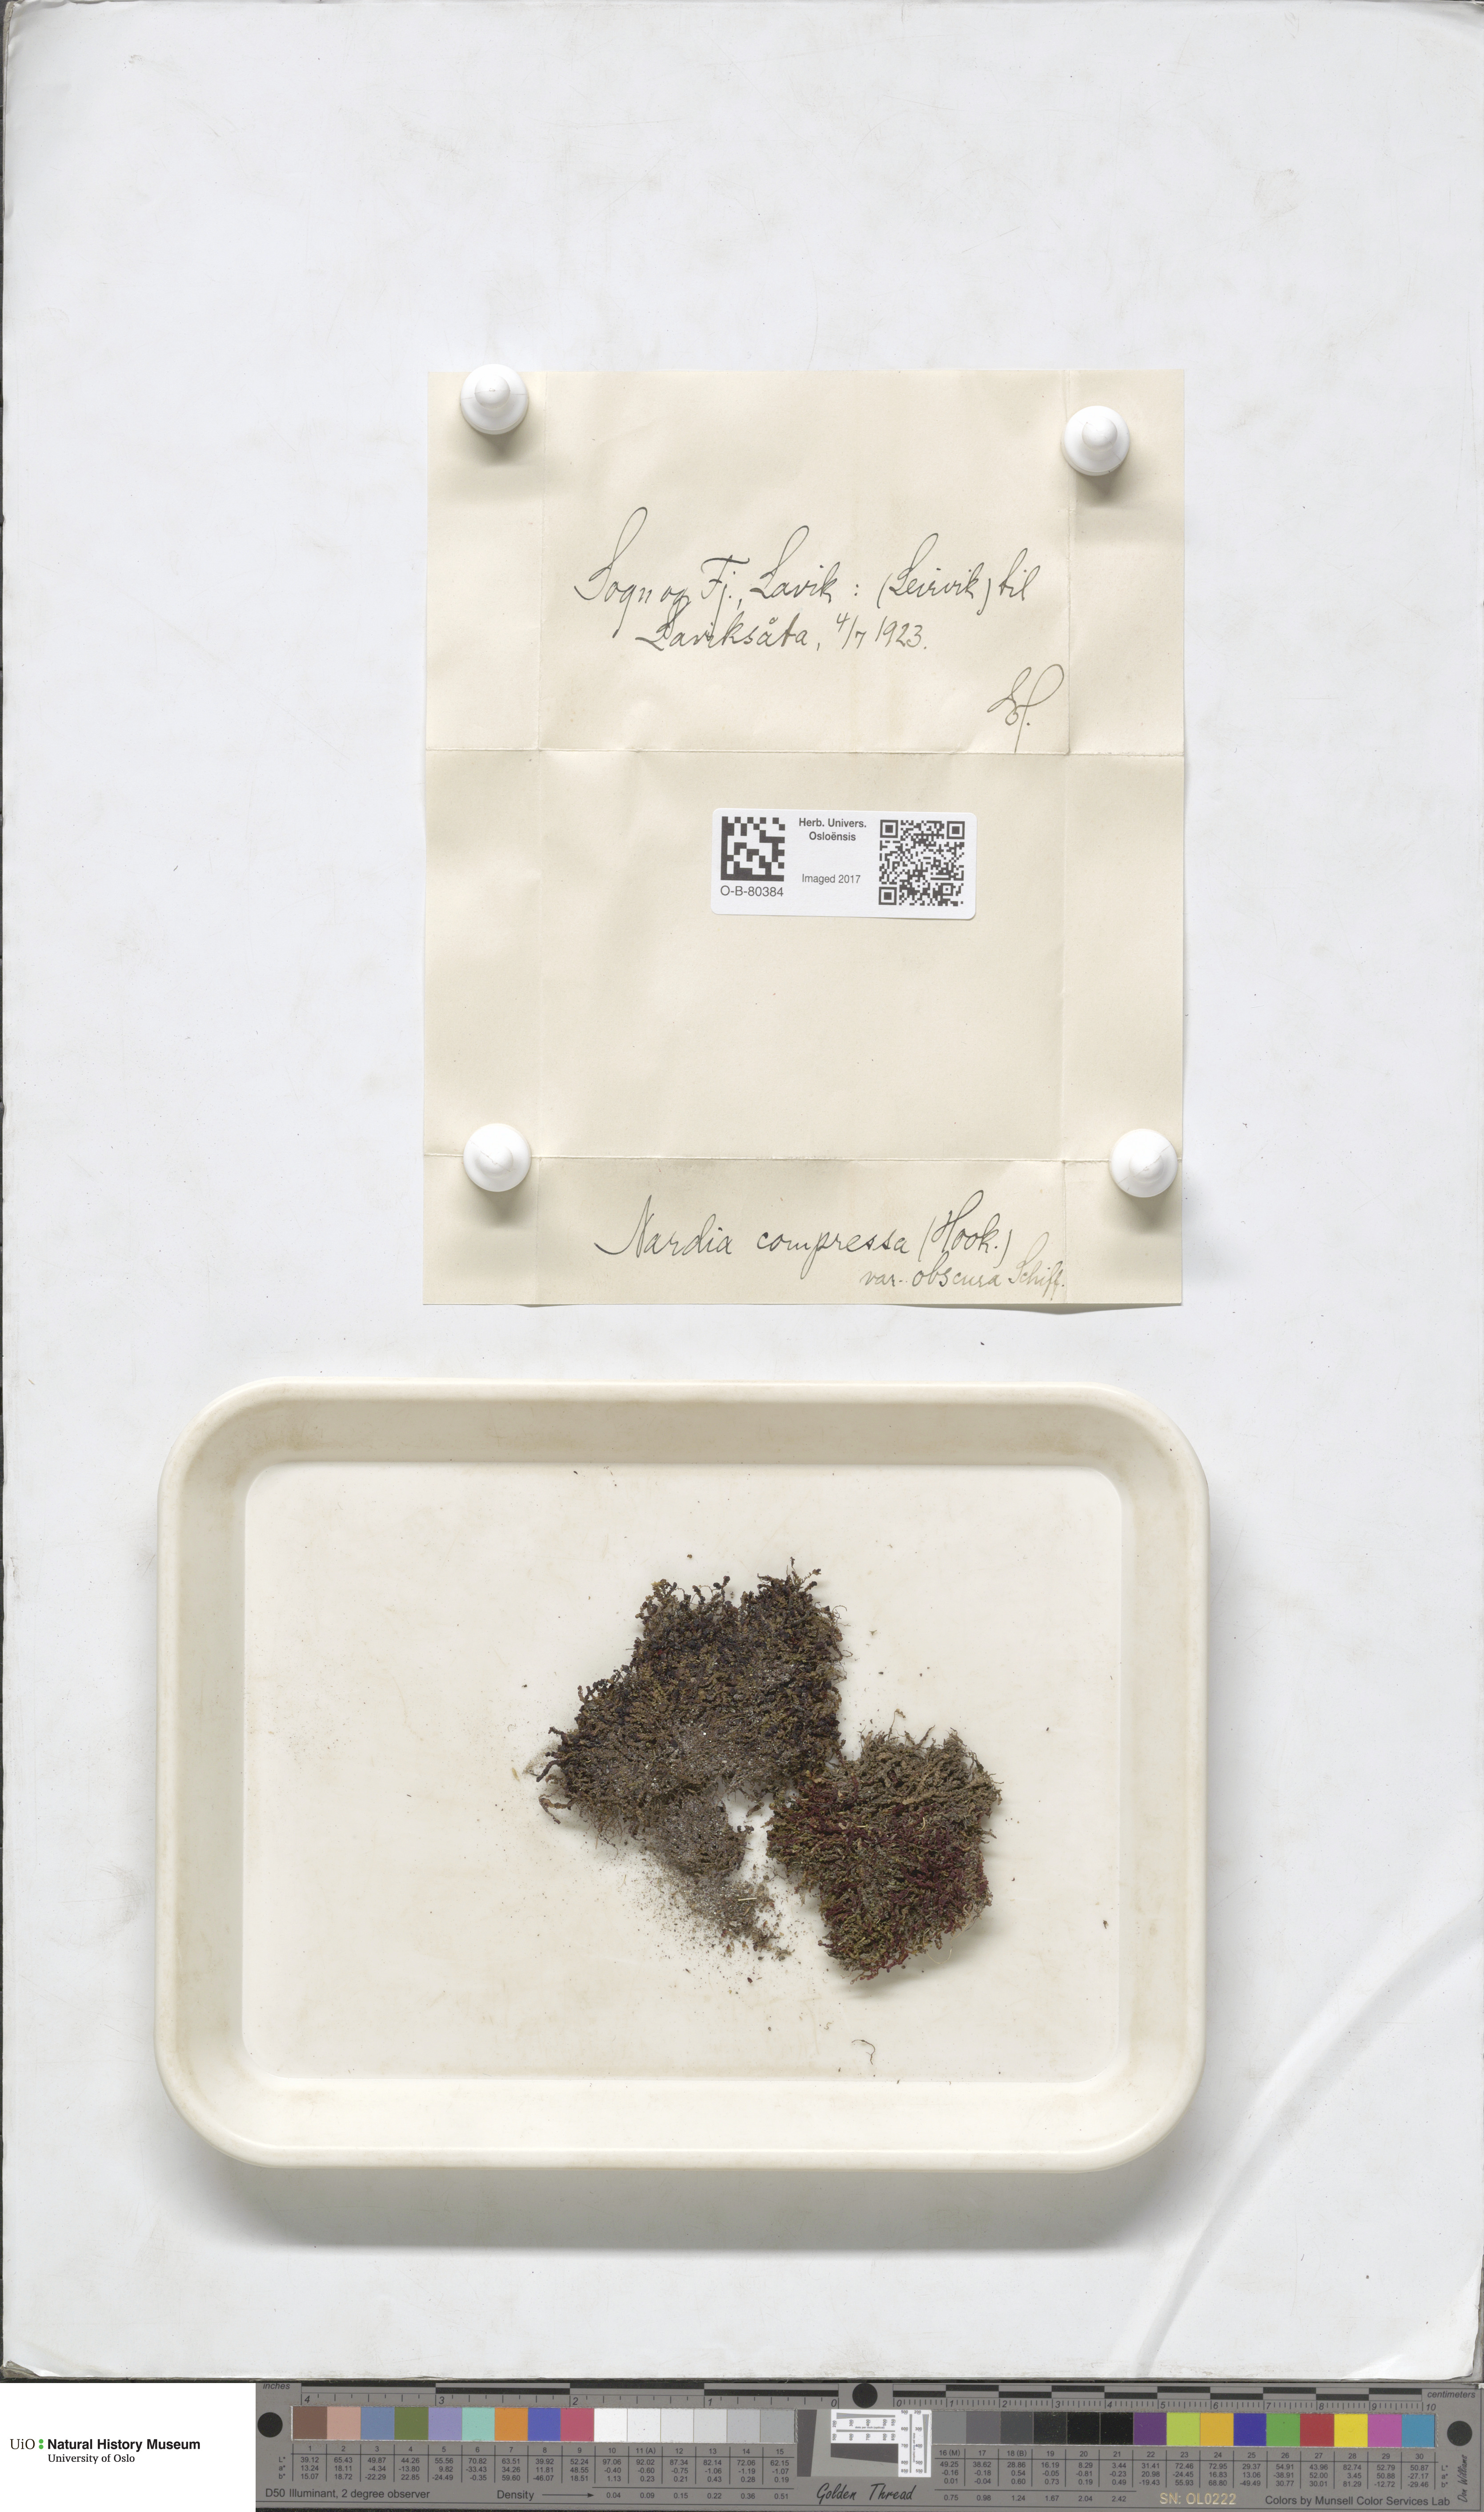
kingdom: Plantae
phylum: Marchantiophyta
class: Jungermanniopsida
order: Jungermanniales
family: Gymnomitriaceae
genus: Nardia
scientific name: Nardia compressa
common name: Compressed flapwort
